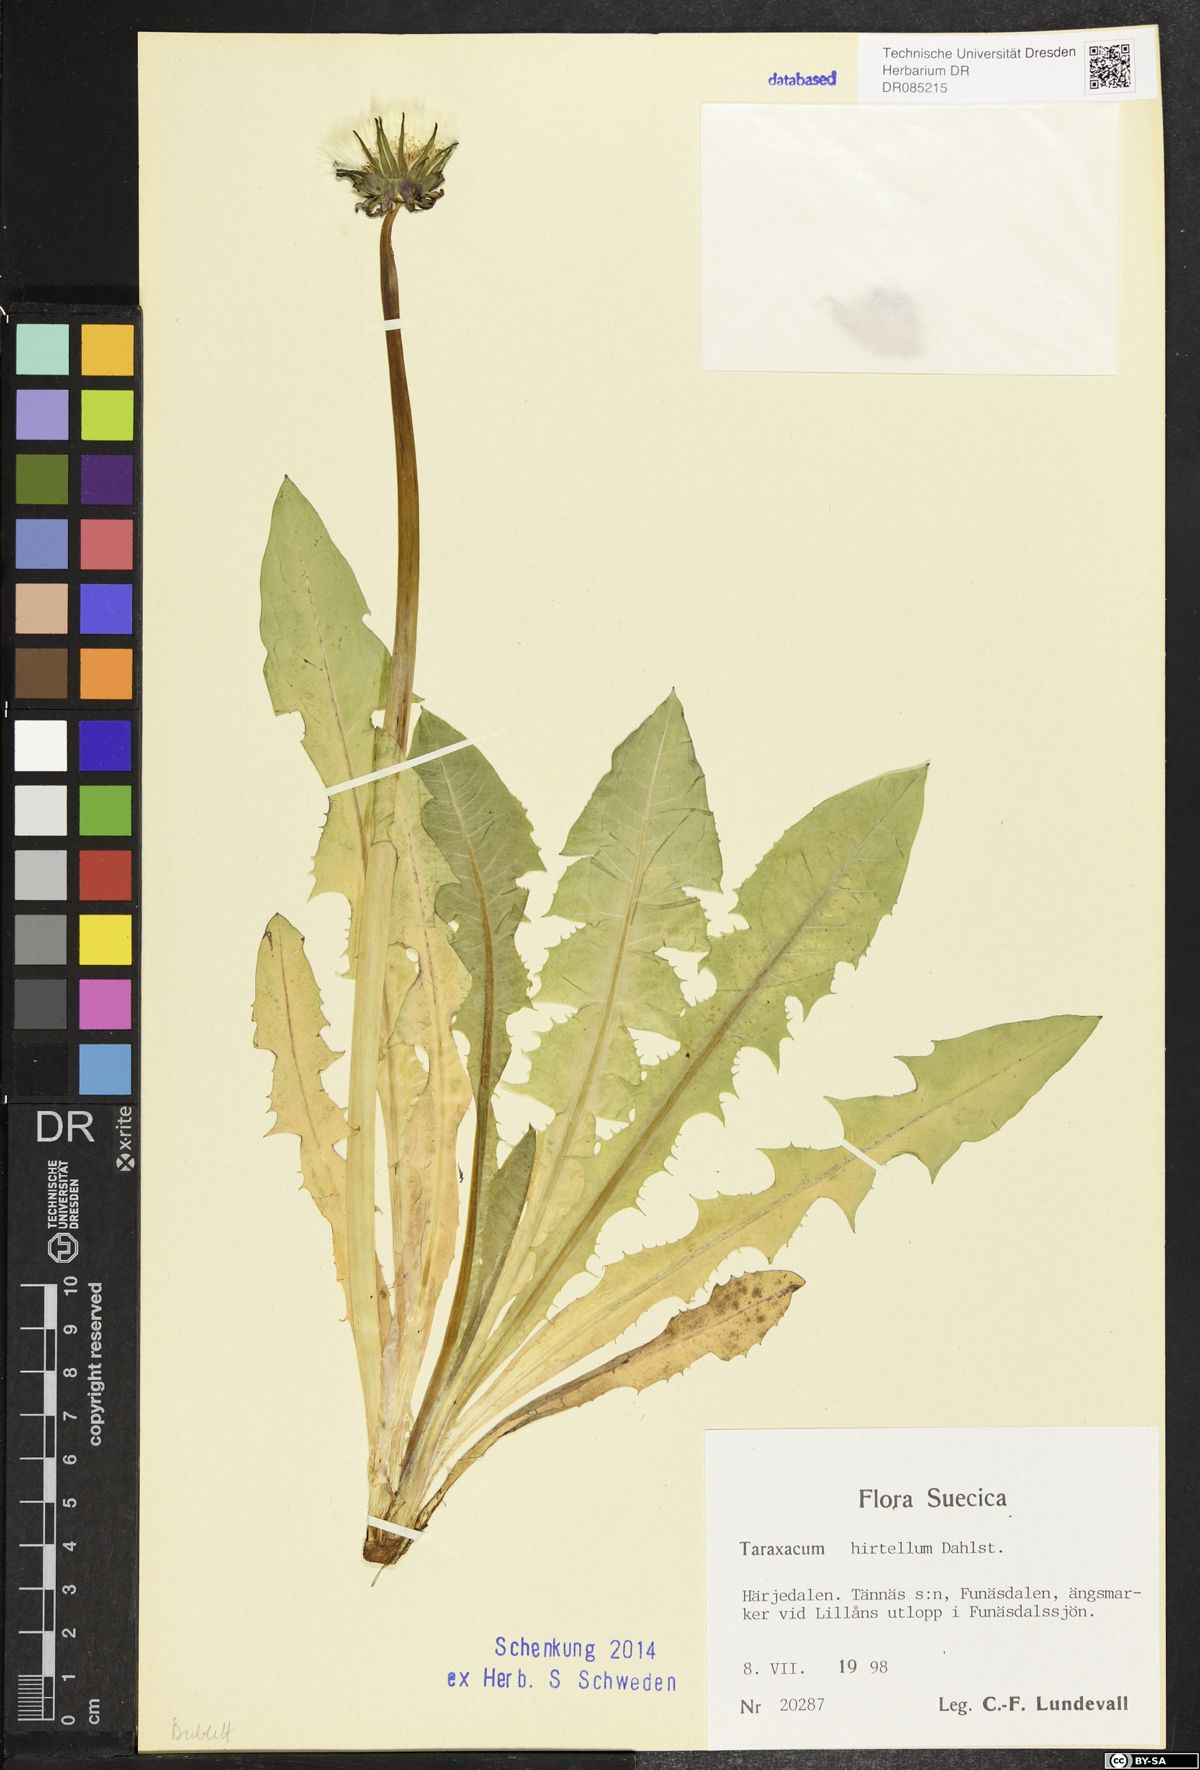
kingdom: Plantae
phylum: Tracheophyta
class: Magnoliopsida
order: Asterales
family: Asteraceae
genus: Taraxacum
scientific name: Taraxacum hirtellum
